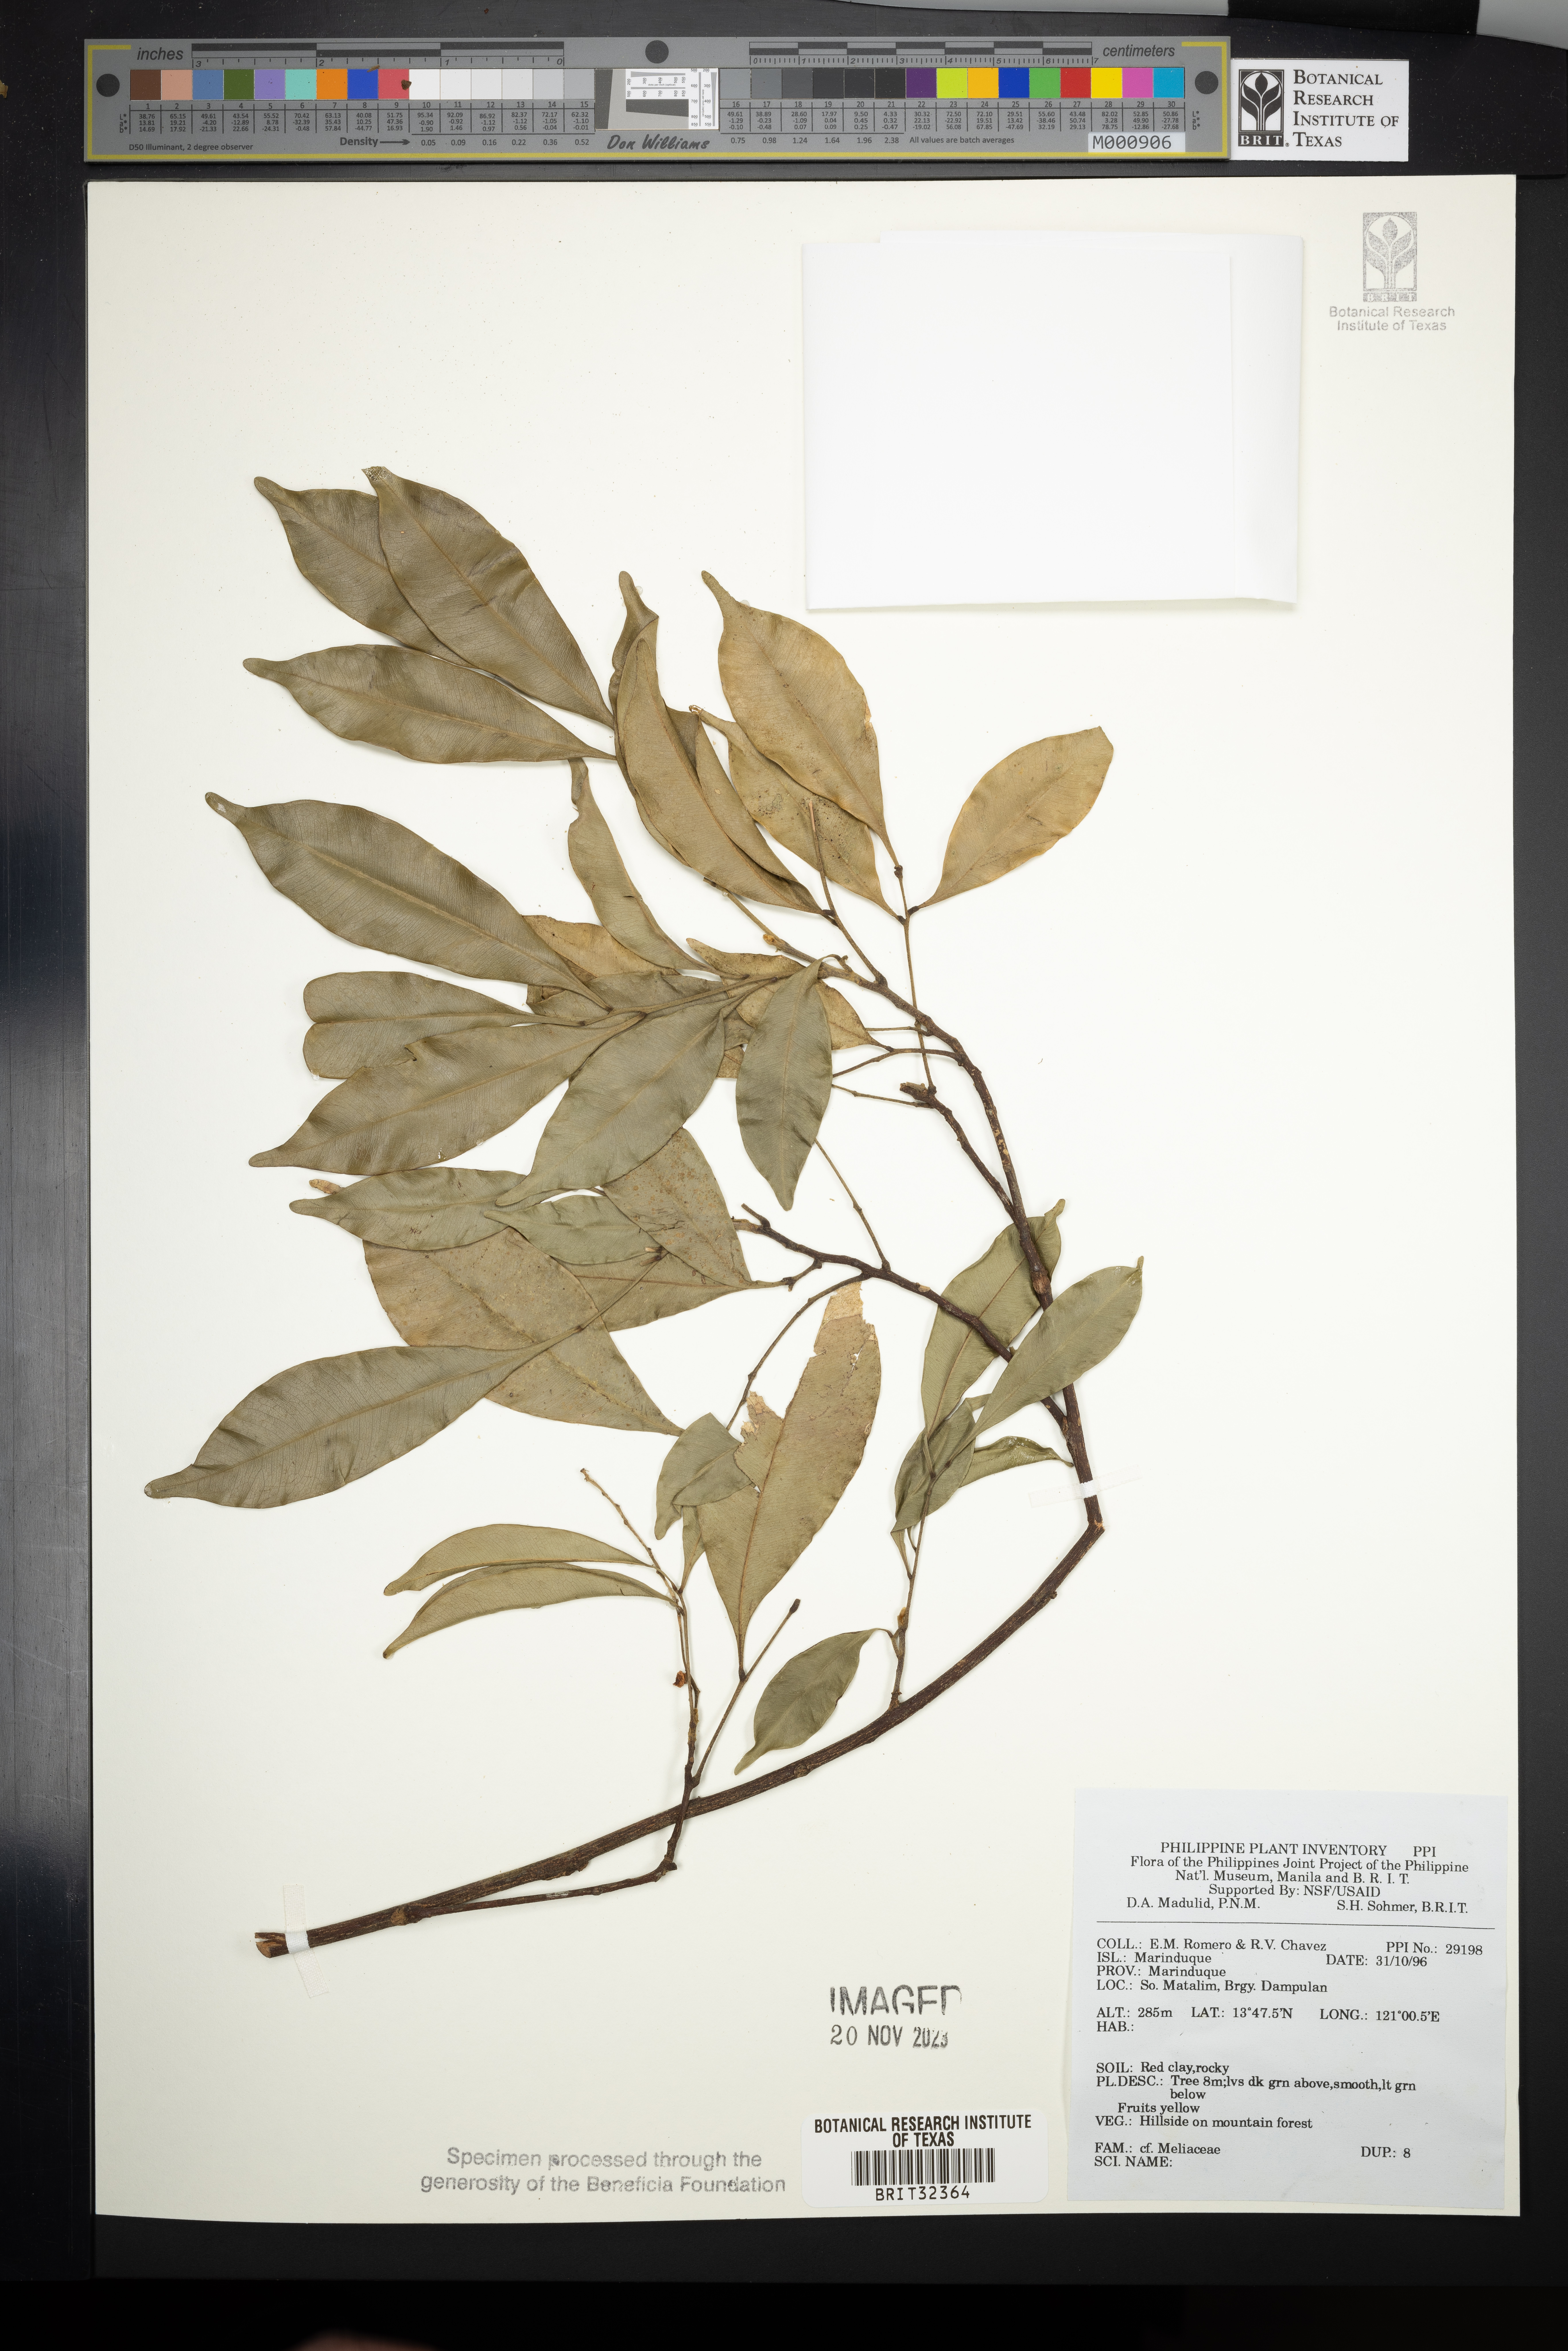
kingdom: Plantae
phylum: Tracheophyta
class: Magnoliopsida
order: Sapindales
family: Meliaceae
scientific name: Meliaceae
